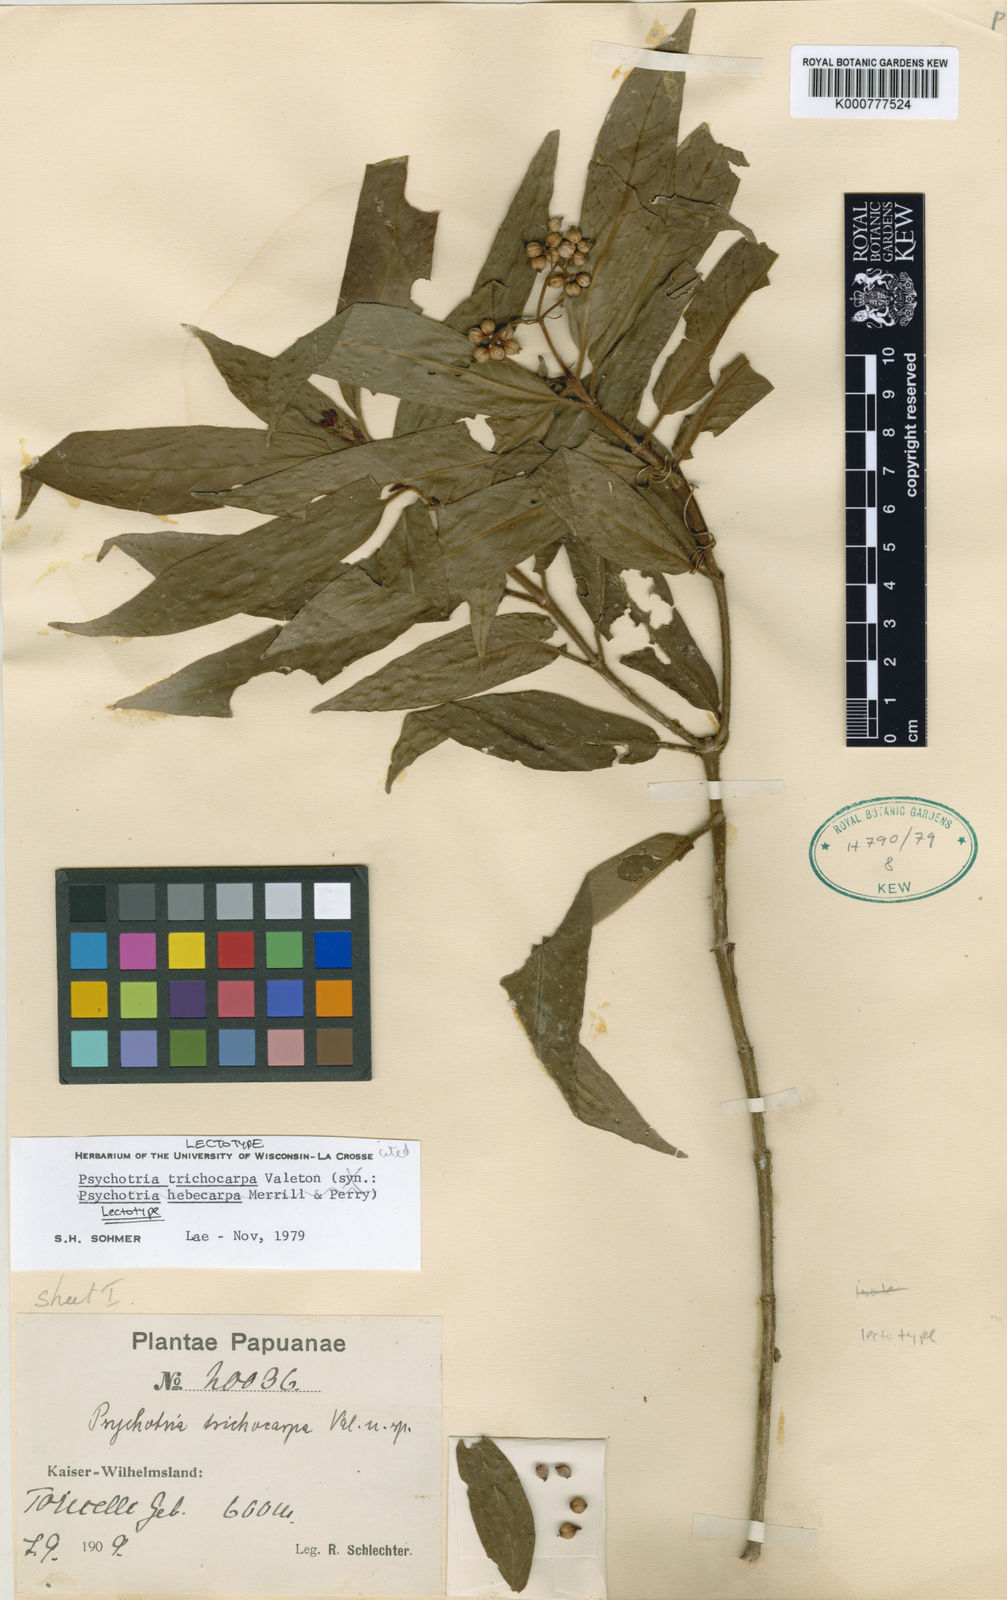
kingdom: Plantae
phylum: Tracheophyta
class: Magnoliopsida
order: Gentianales
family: Rubiaceae
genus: Psychotria
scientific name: Psychotria trichocarpa
